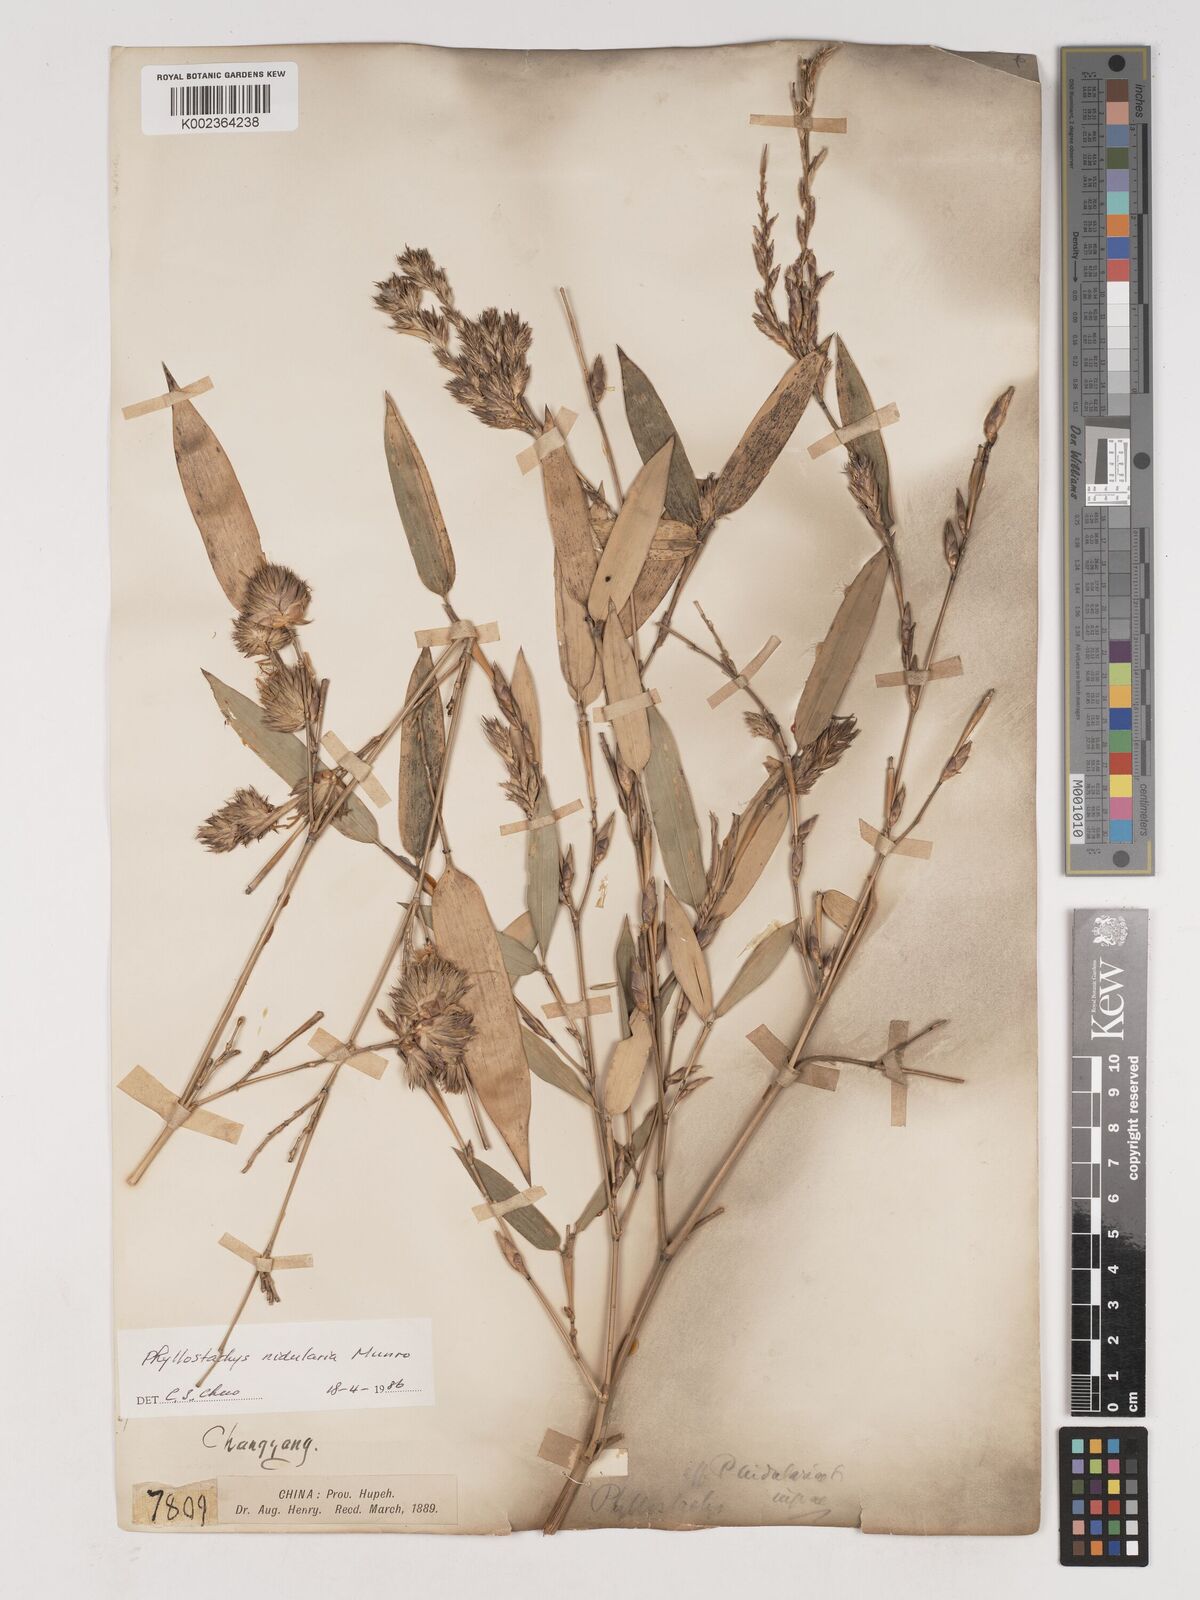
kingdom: Plantae
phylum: Tracheophyta
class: Liliopsida
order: Poales
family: Poaceae
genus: Phyllostachys
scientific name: Phyllostachys nidularia
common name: Broom bamboo
